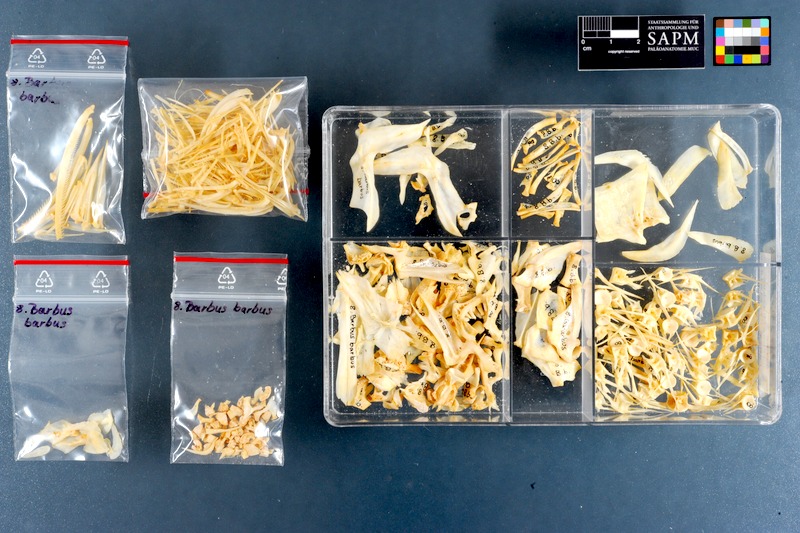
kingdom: Animalia
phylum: Chordata
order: Cypriniformes
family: Cyprinidae
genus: Barbus
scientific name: Barbus barbus
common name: Barbel
